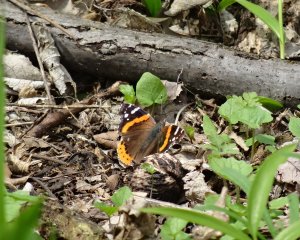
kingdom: Animalia
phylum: Arthropoda
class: Insecta
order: Lepidoptera
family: Nymphalidae
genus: Vanessa
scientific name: Vanessa atalanta
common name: Red Admiral
